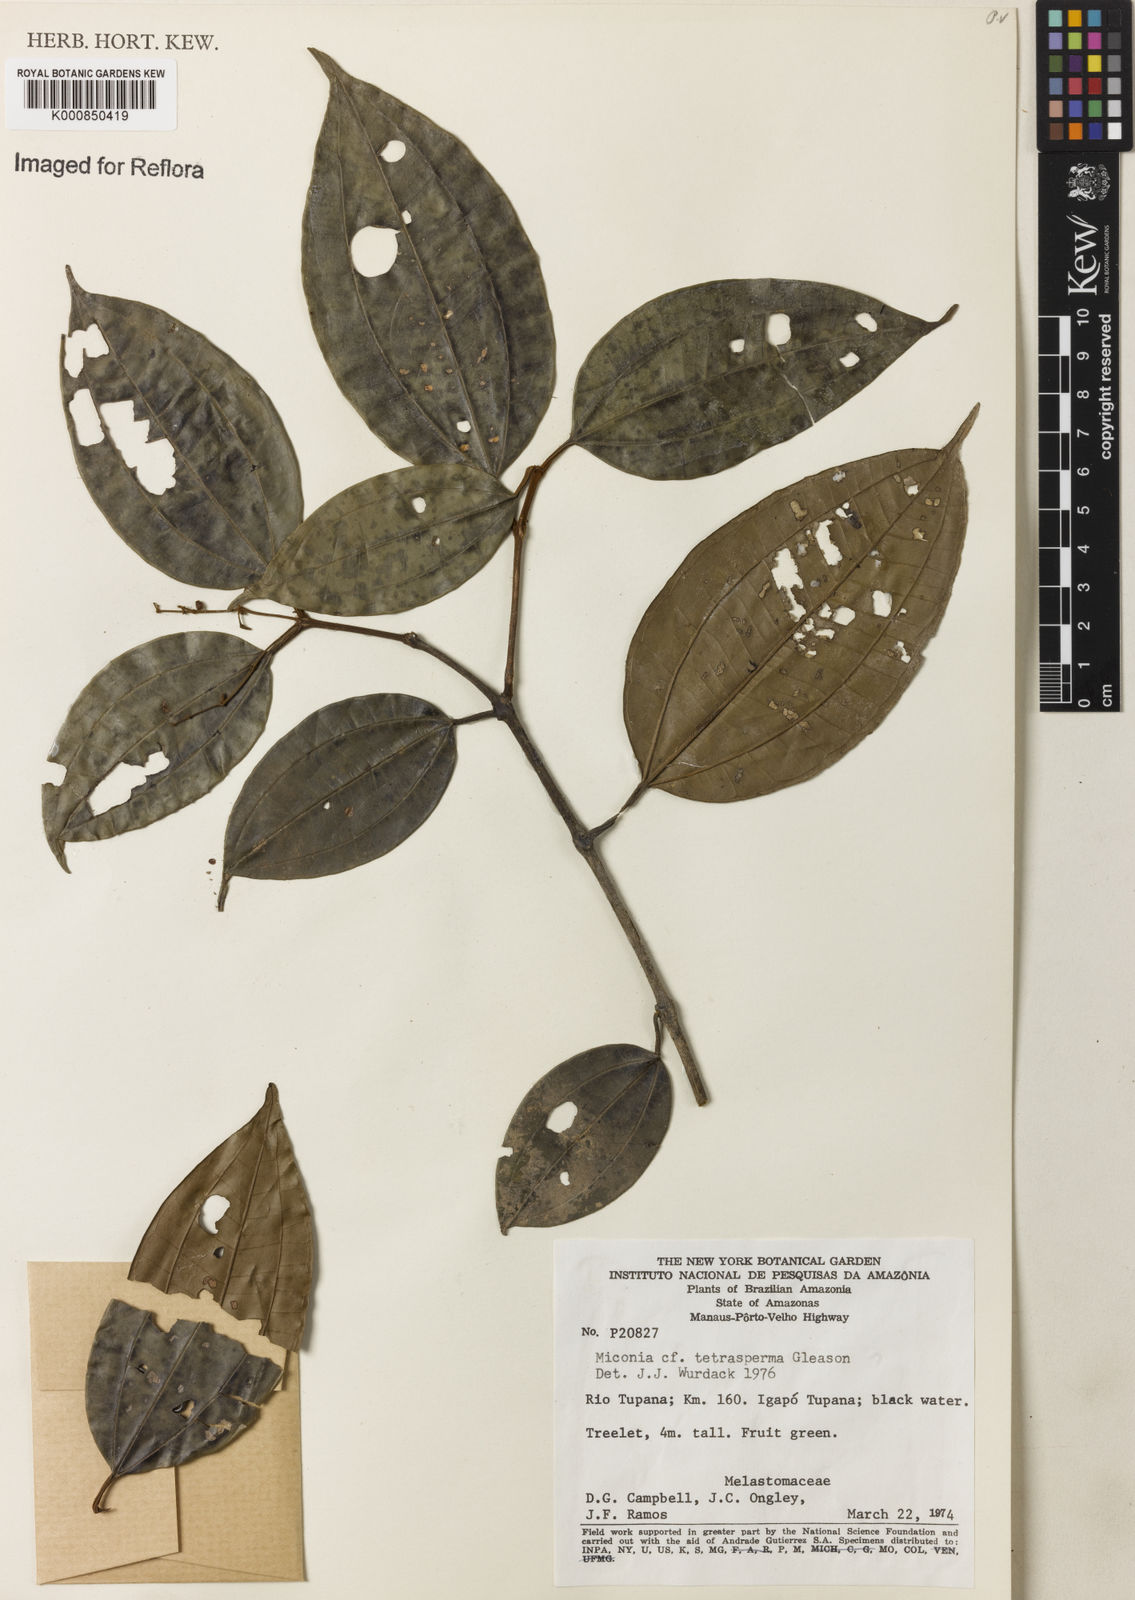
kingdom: Plantae
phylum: Tracheophyta
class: Magnoliopsida
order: Myrtales
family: Melastomataceae
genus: Miconia
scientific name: Miconia tetrasperma
